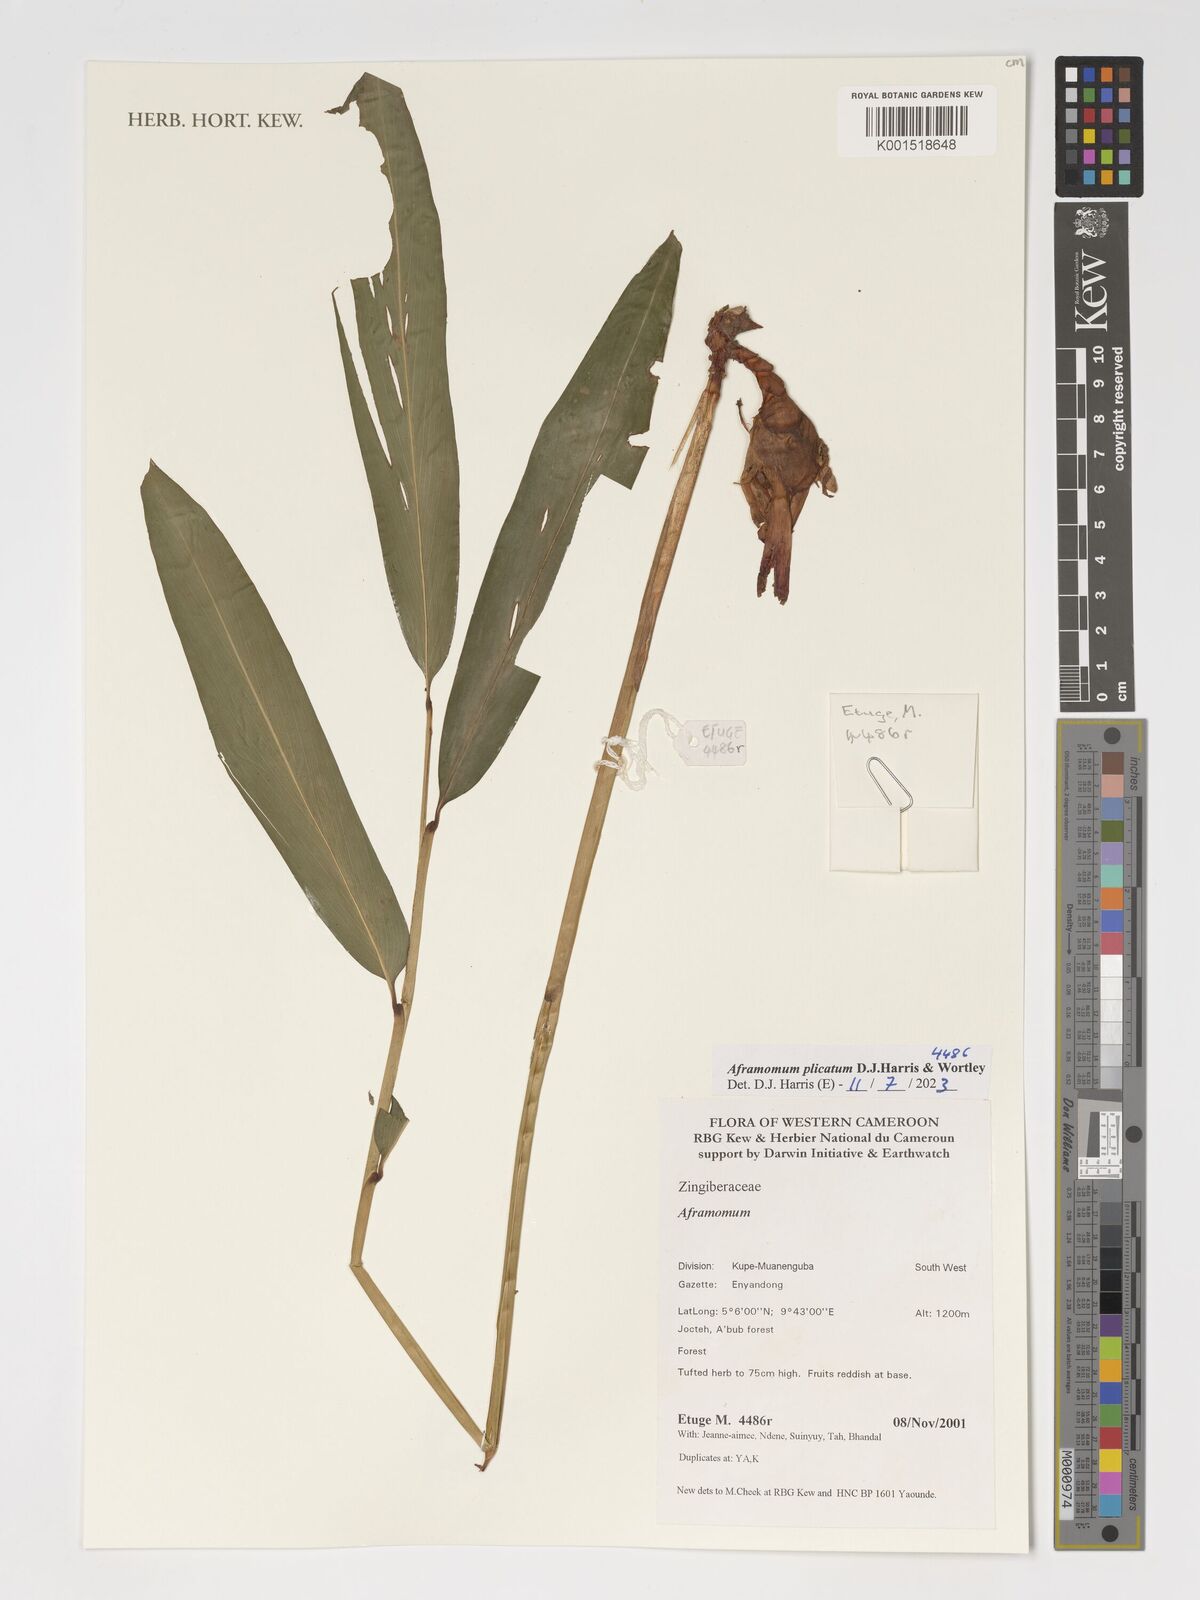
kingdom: Plantae
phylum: Tracheophyta
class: Liliopsida
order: Zingiberales
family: Zingiberaceae
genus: Aframomum
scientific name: Aframomum plicatum
